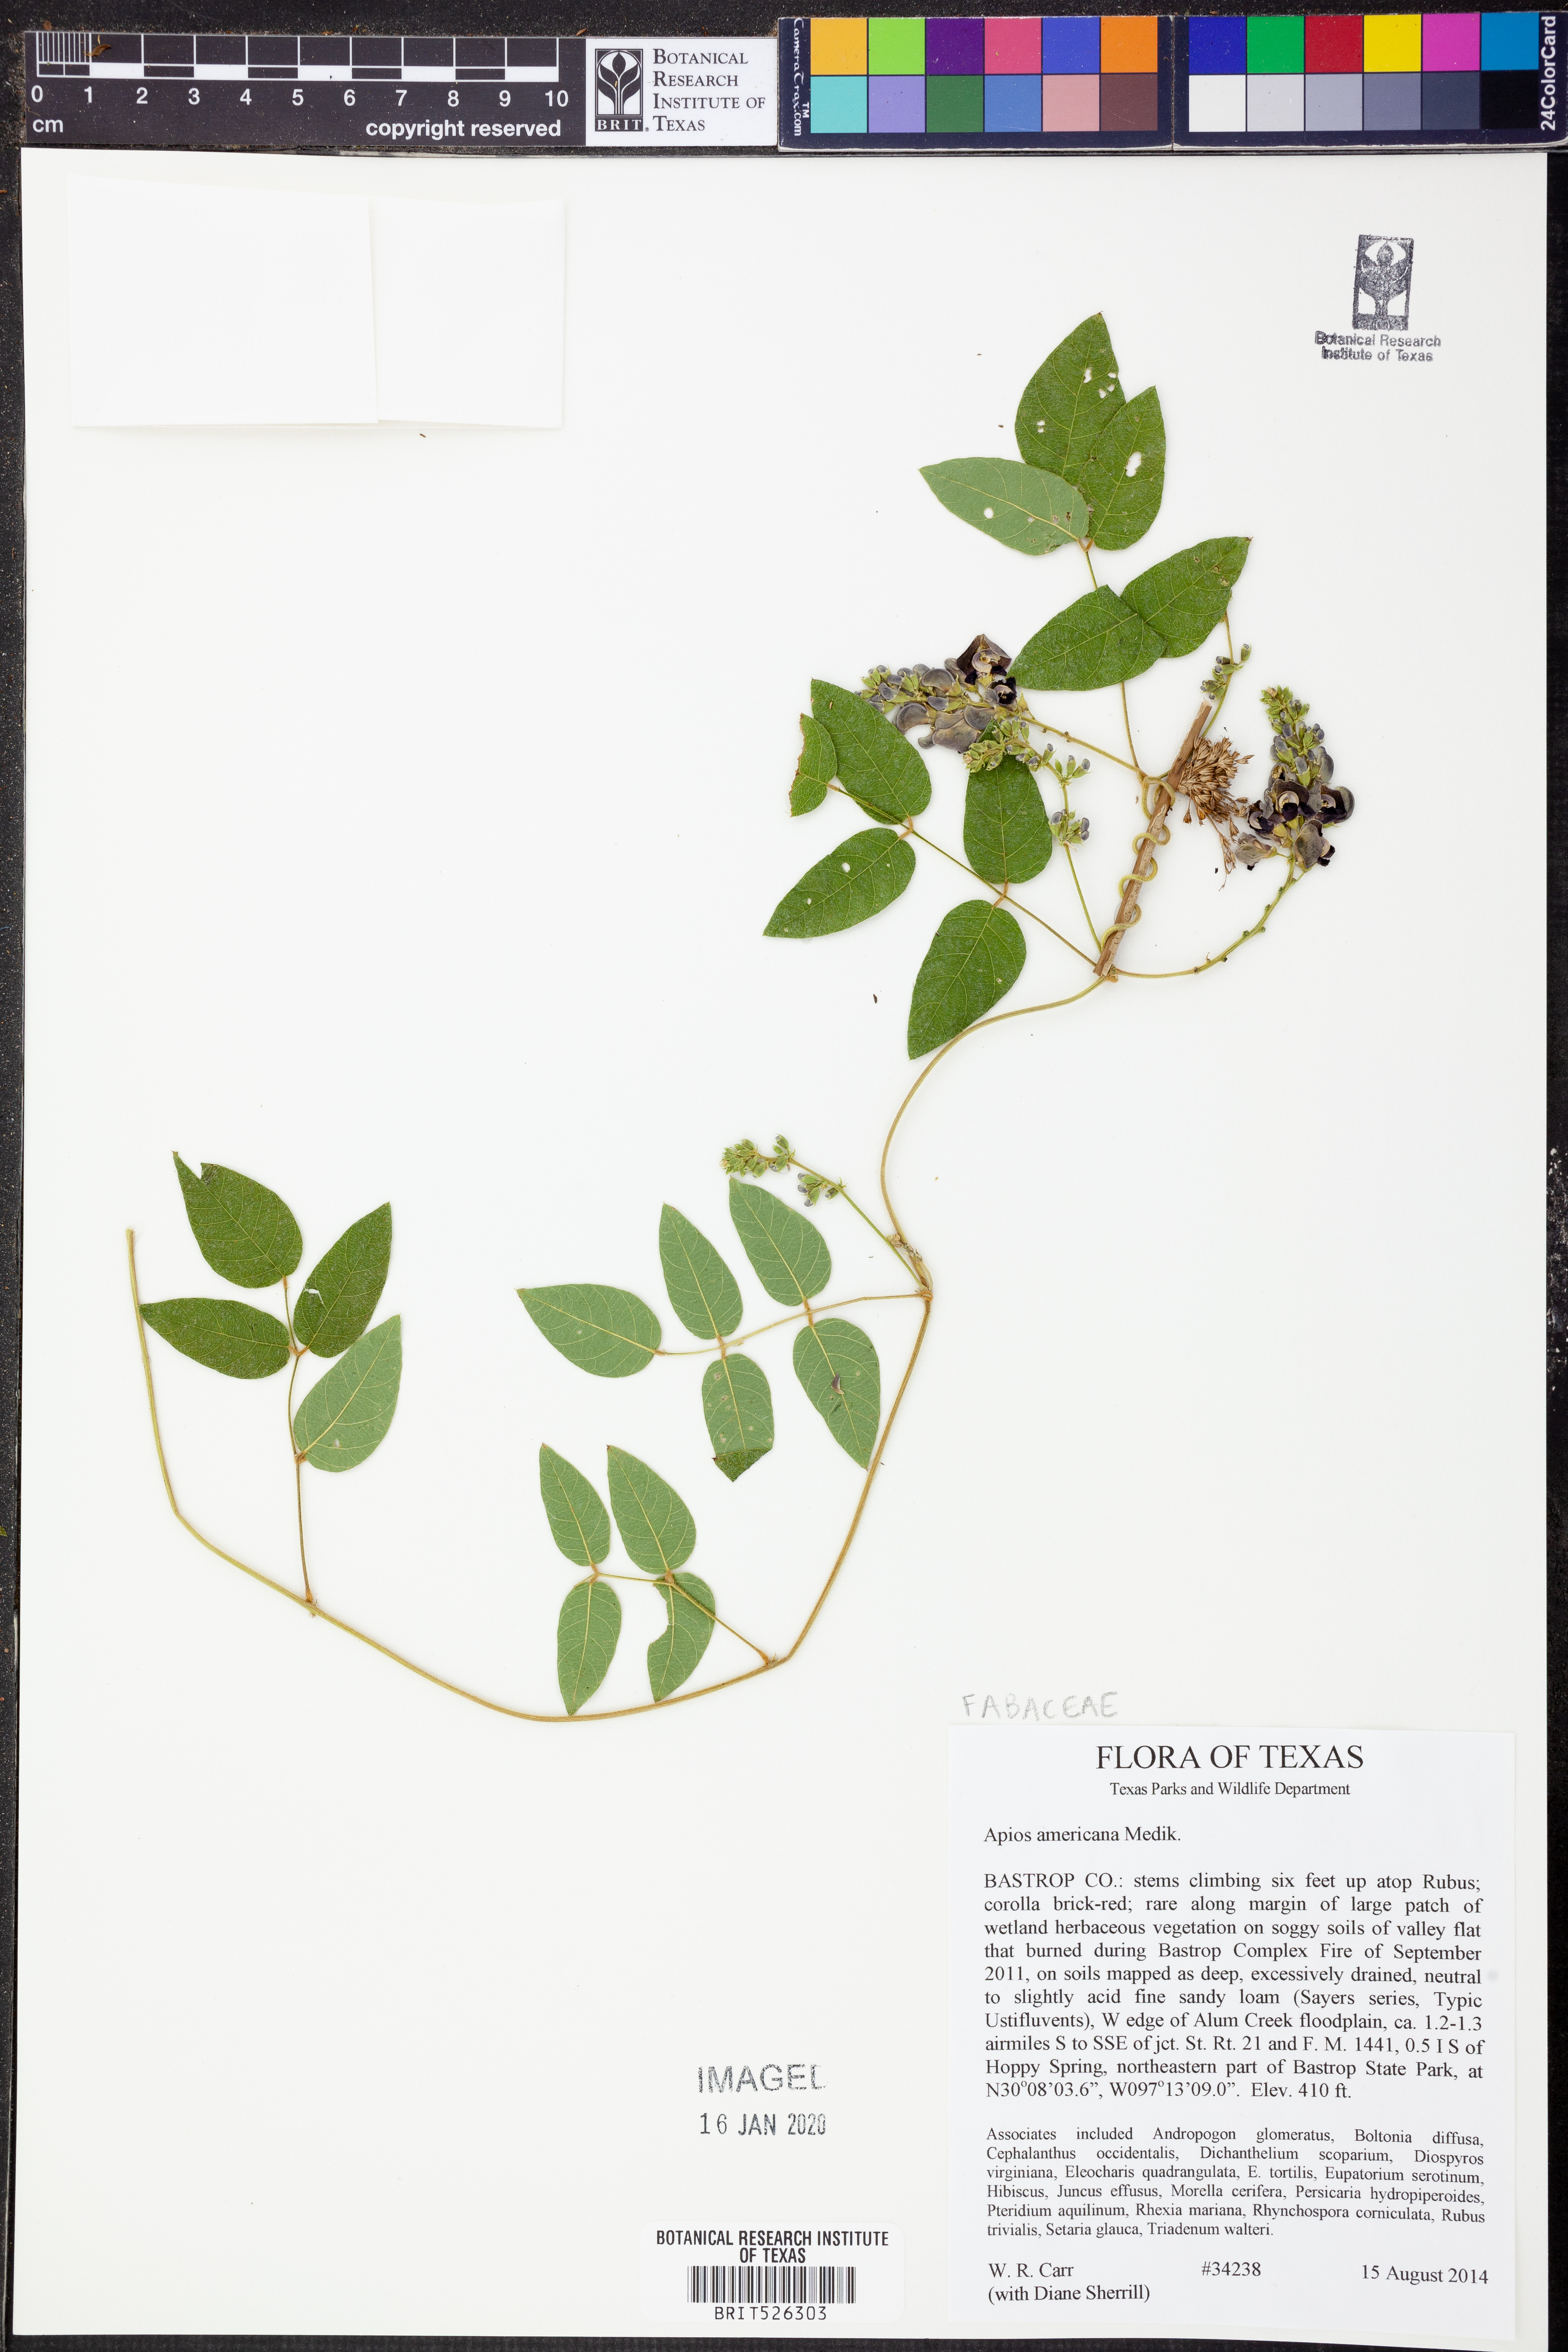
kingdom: Plantae
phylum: Tracheophyta
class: Magnoliopsida
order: Fabales
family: Fabaceae
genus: Apios
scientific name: Apios americana
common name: American potato-bean
